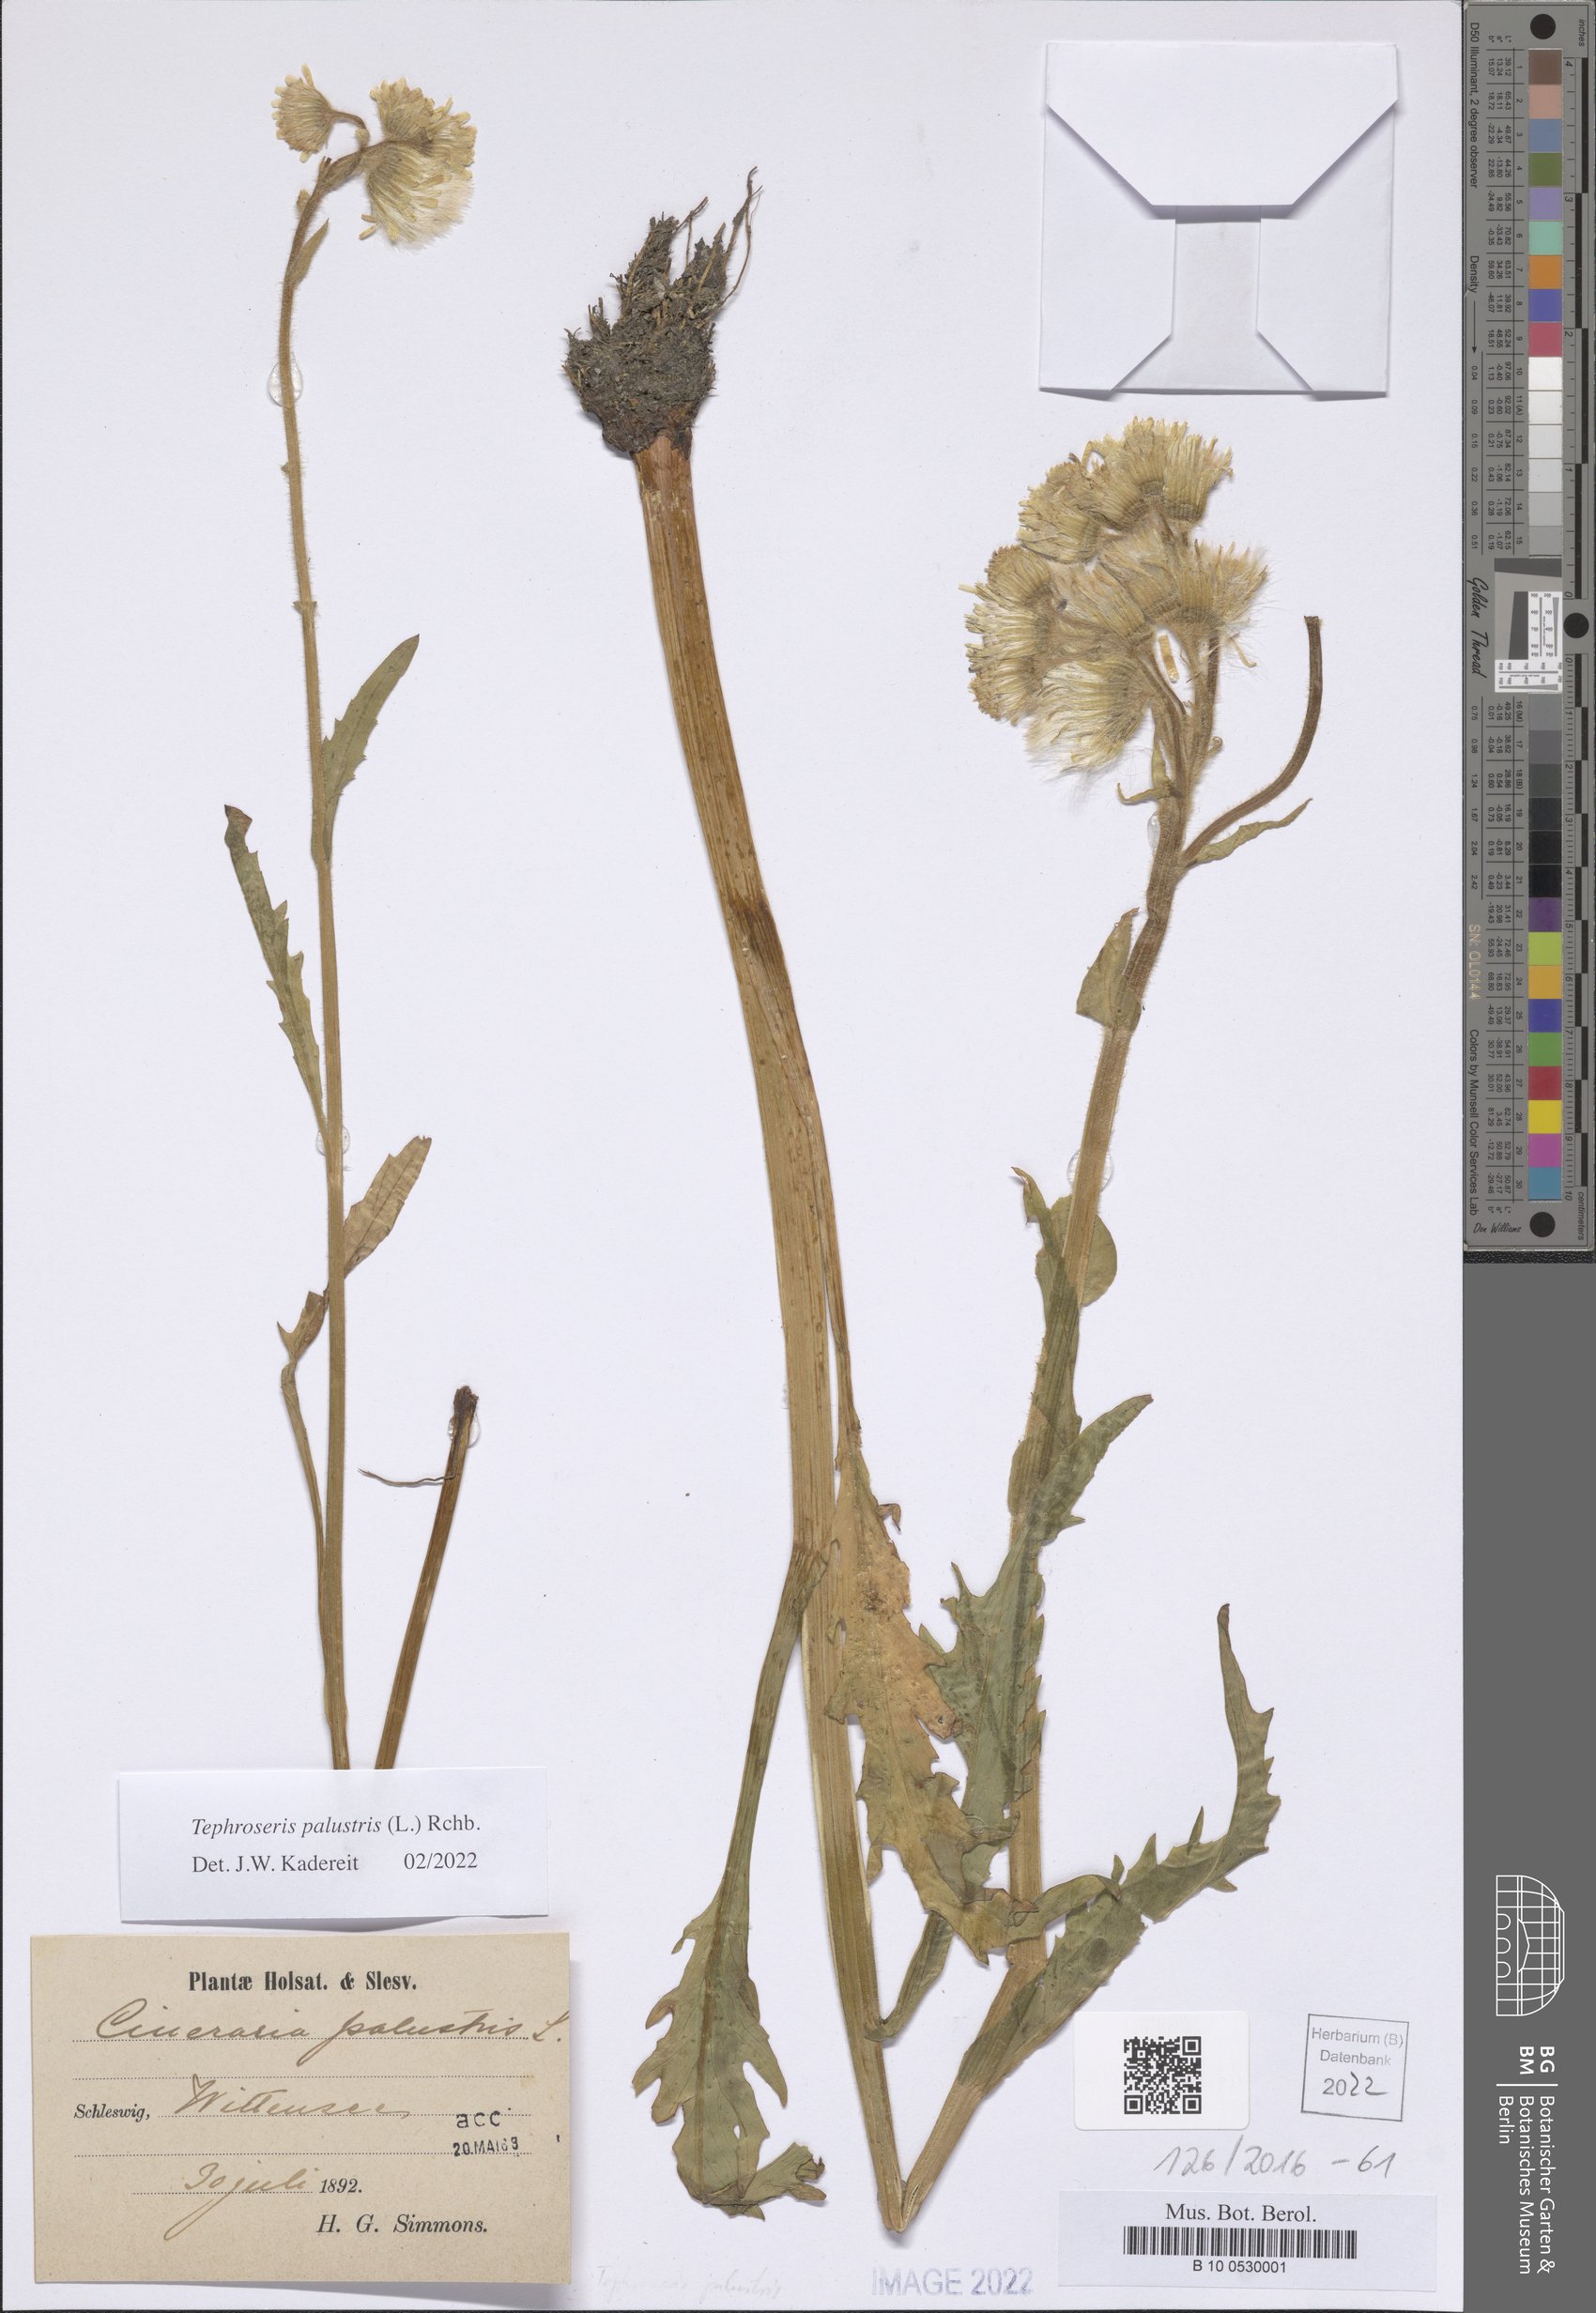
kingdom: Plantae
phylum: Tracheophyta
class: Magnoliopsida
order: Asterales
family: Asteraceae
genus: Tephroseris
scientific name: Tephroseris palustris
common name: Marsh fleawort
